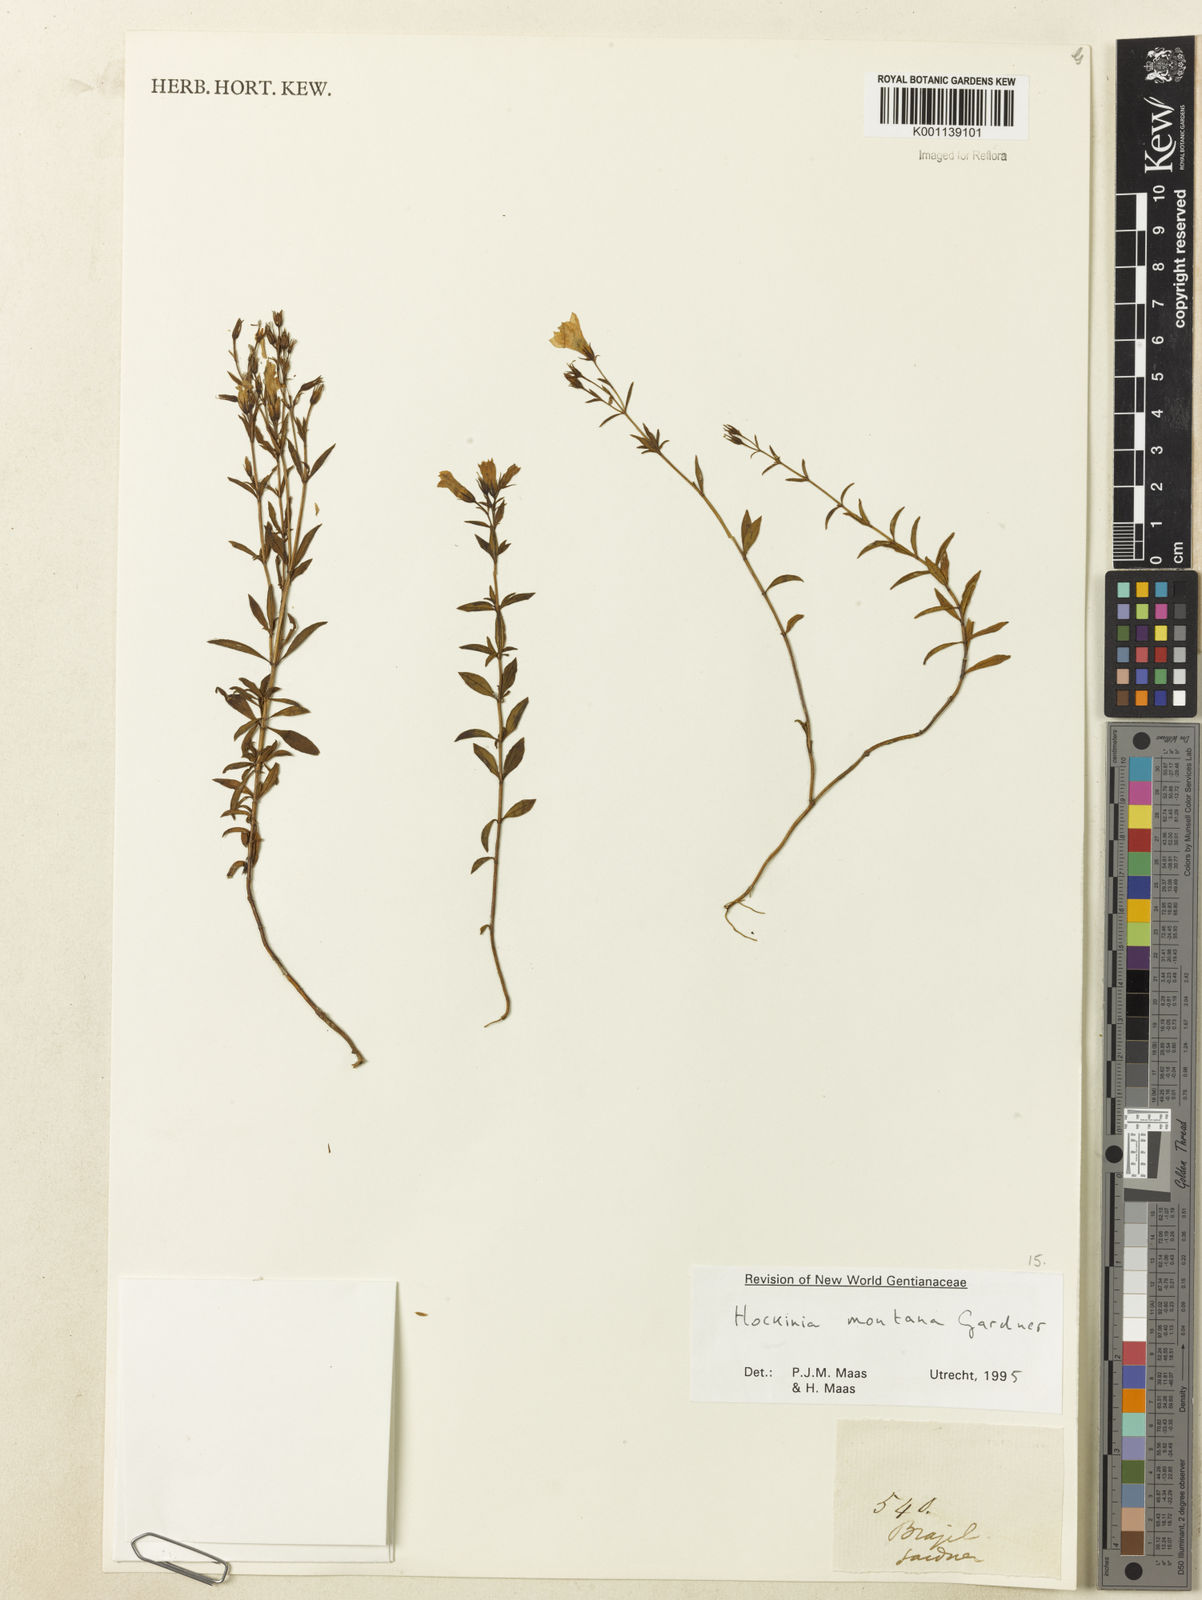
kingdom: Plantae
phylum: Tracheophyta
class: Magnoliopsida
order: Gentianales
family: Gentianaceae
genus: Hockinia
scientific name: Hockinia montana
